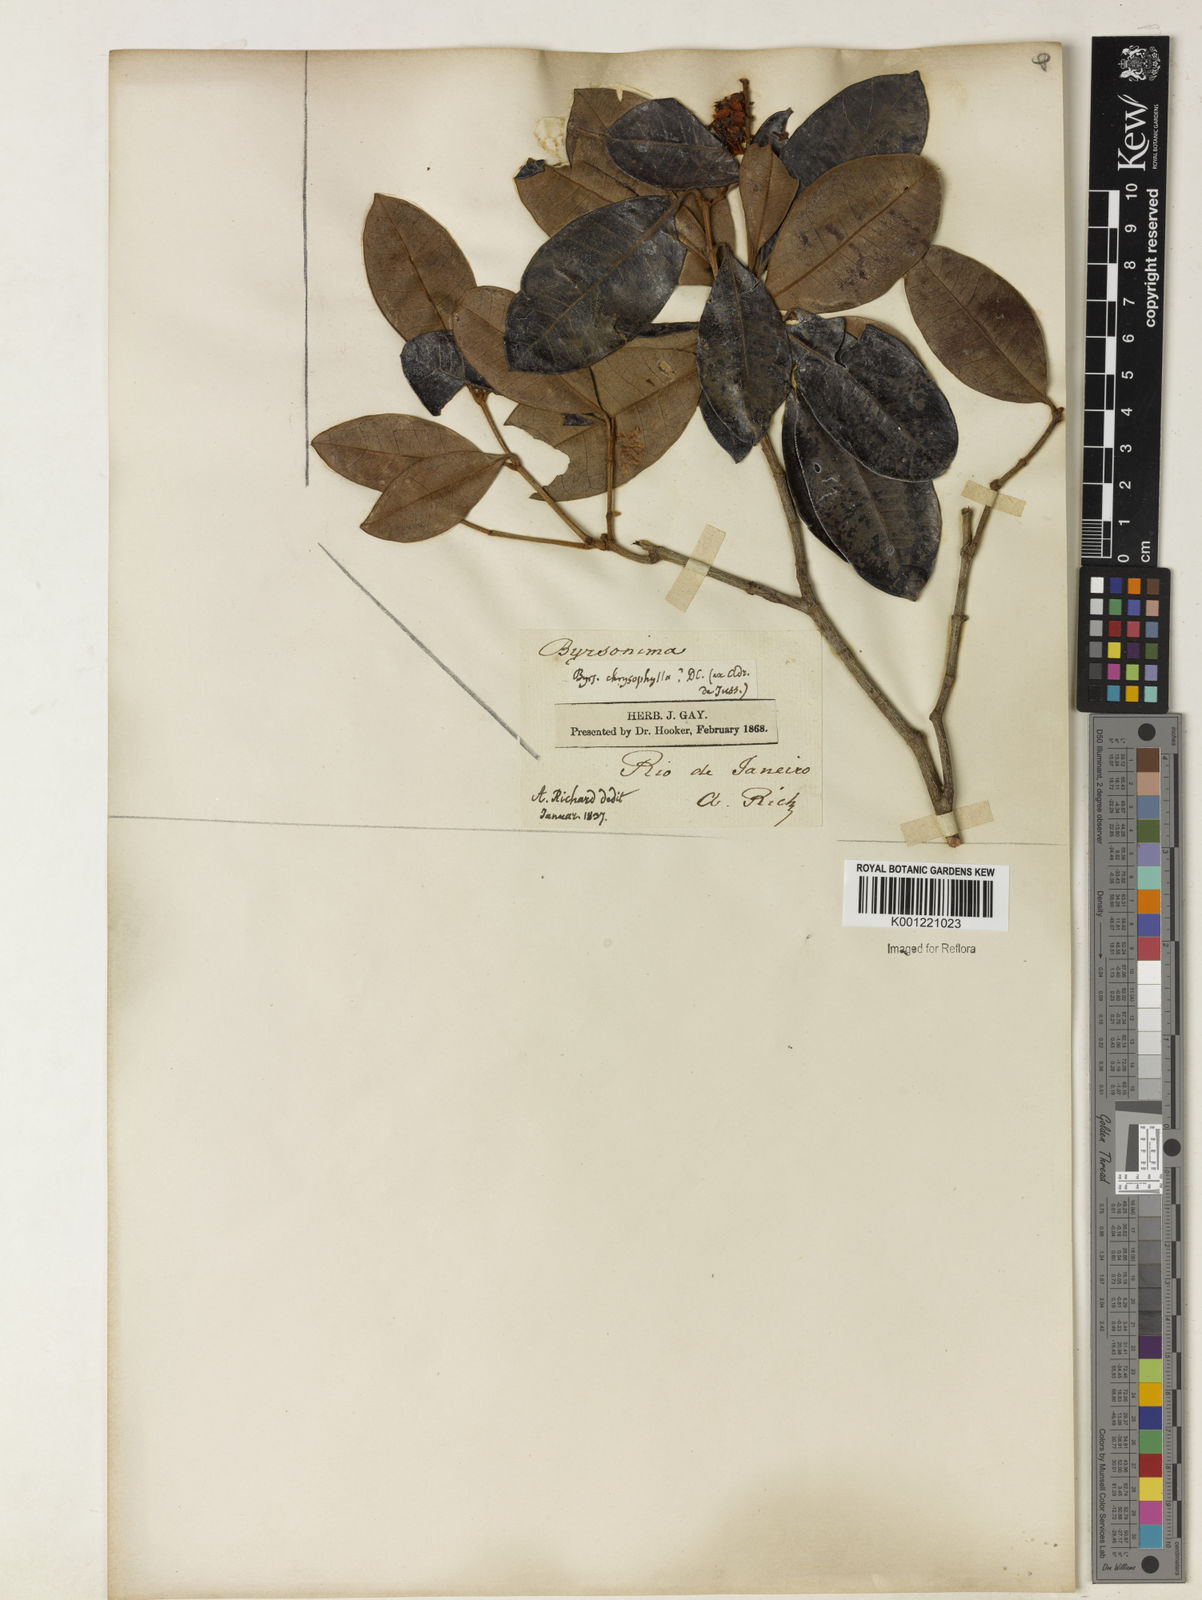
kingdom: Plantae
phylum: Tracheophyta
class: Magnoliopsida
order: Malpighiales
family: Malpighiaceae
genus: Byrsonima
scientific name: Byrsonima sericea
